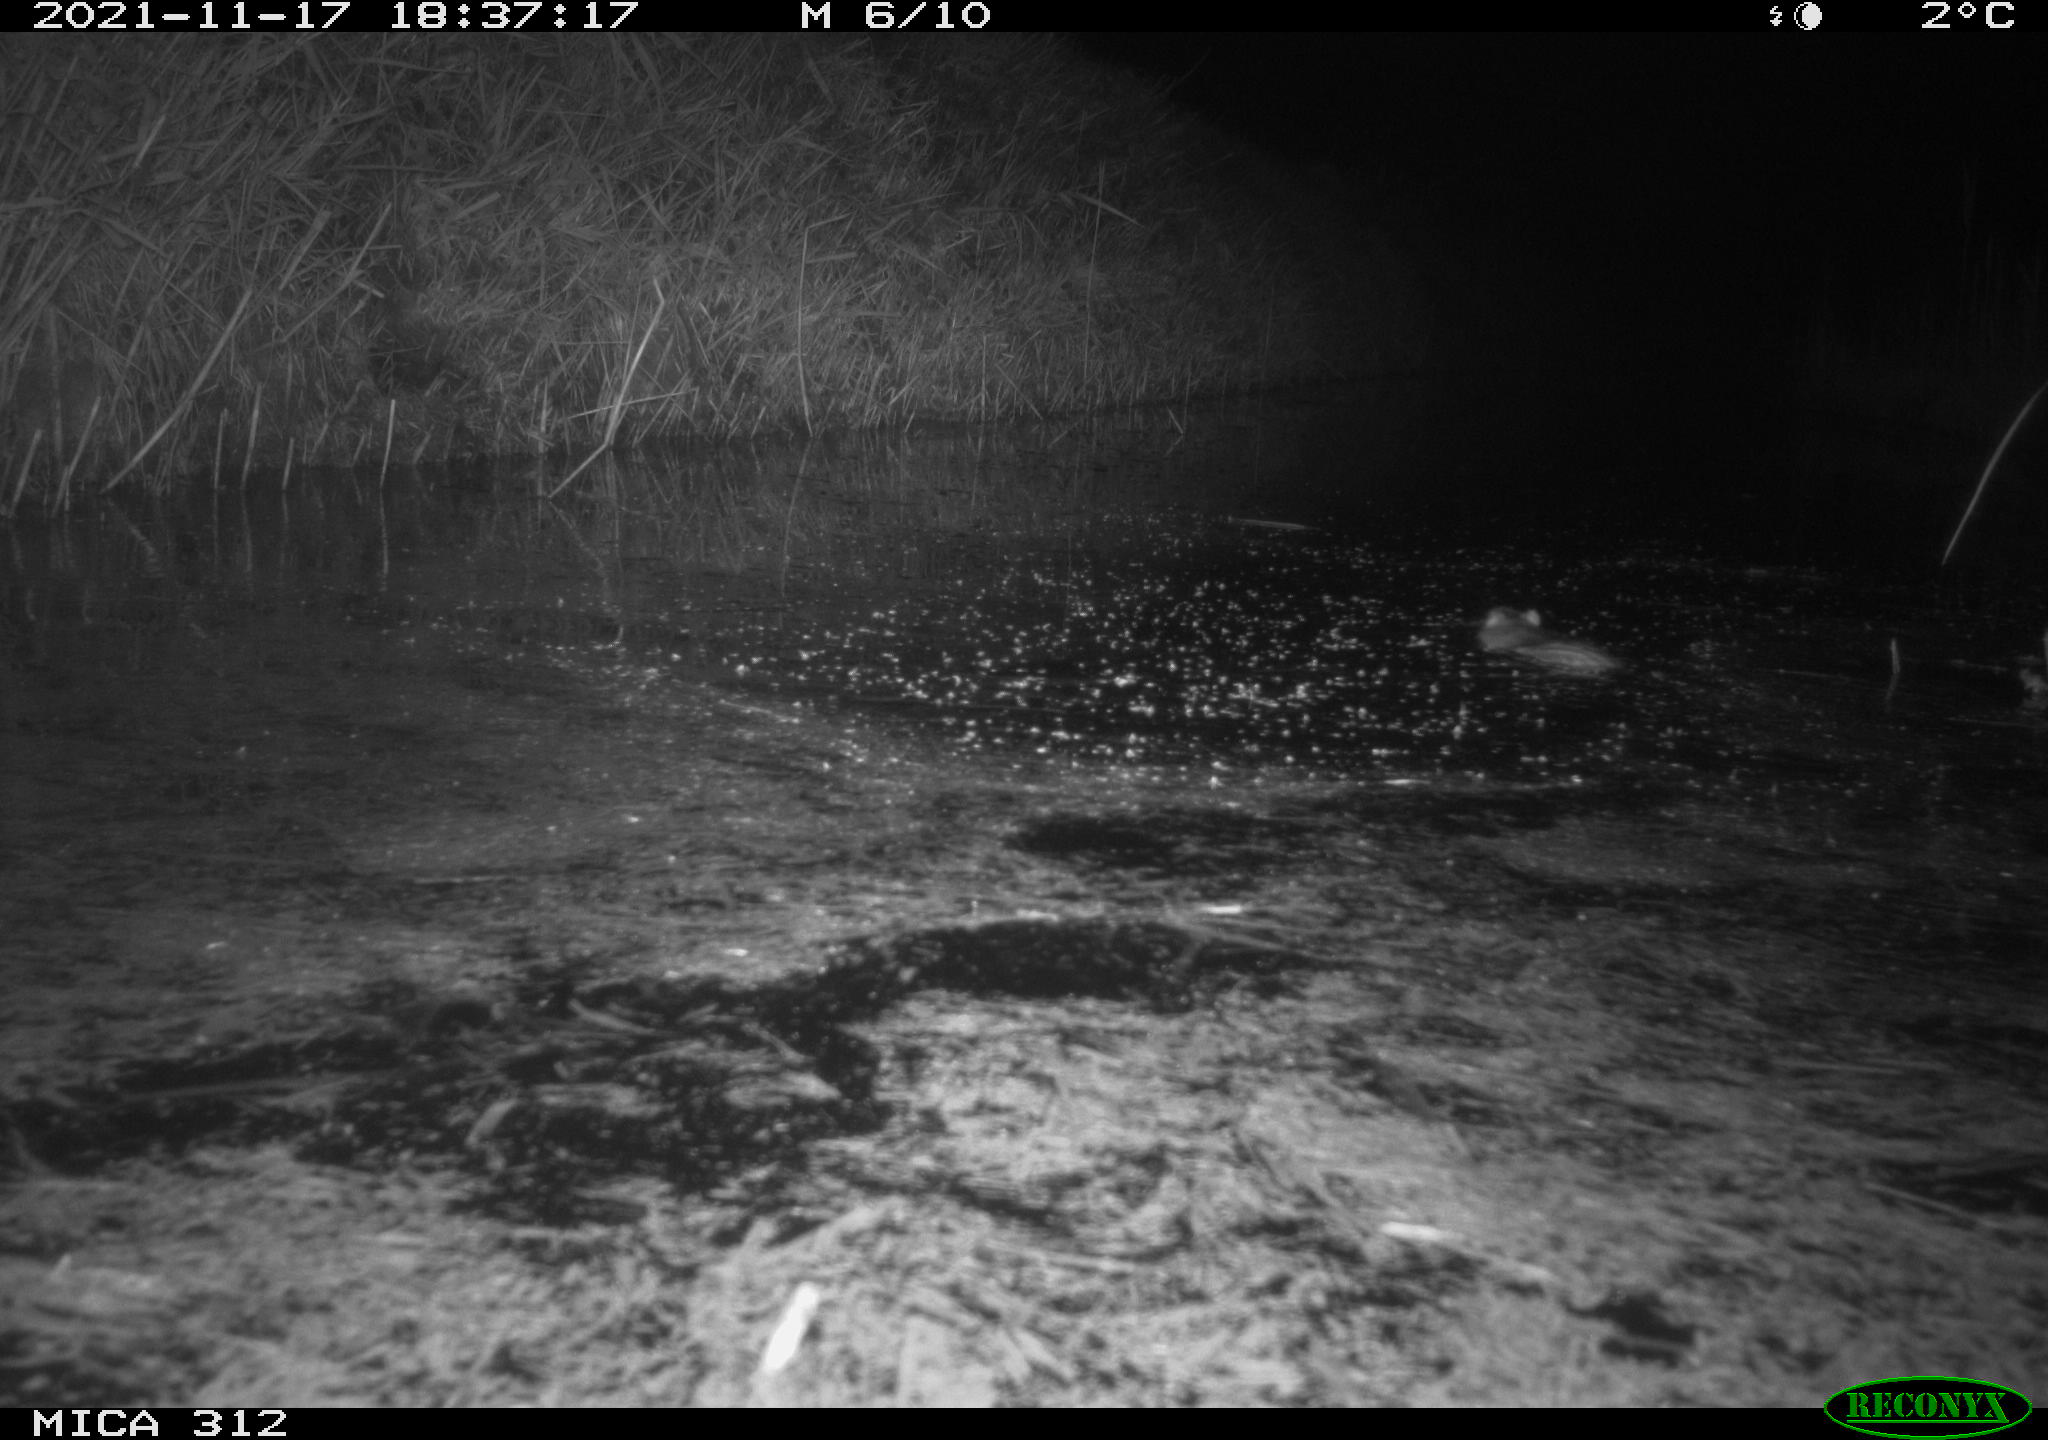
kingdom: Animalia
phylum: Chordata
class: Mammalia
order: Rodentia
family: Muridae
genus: Rattus
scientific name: Rattus norvegicus
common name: Brown rat
